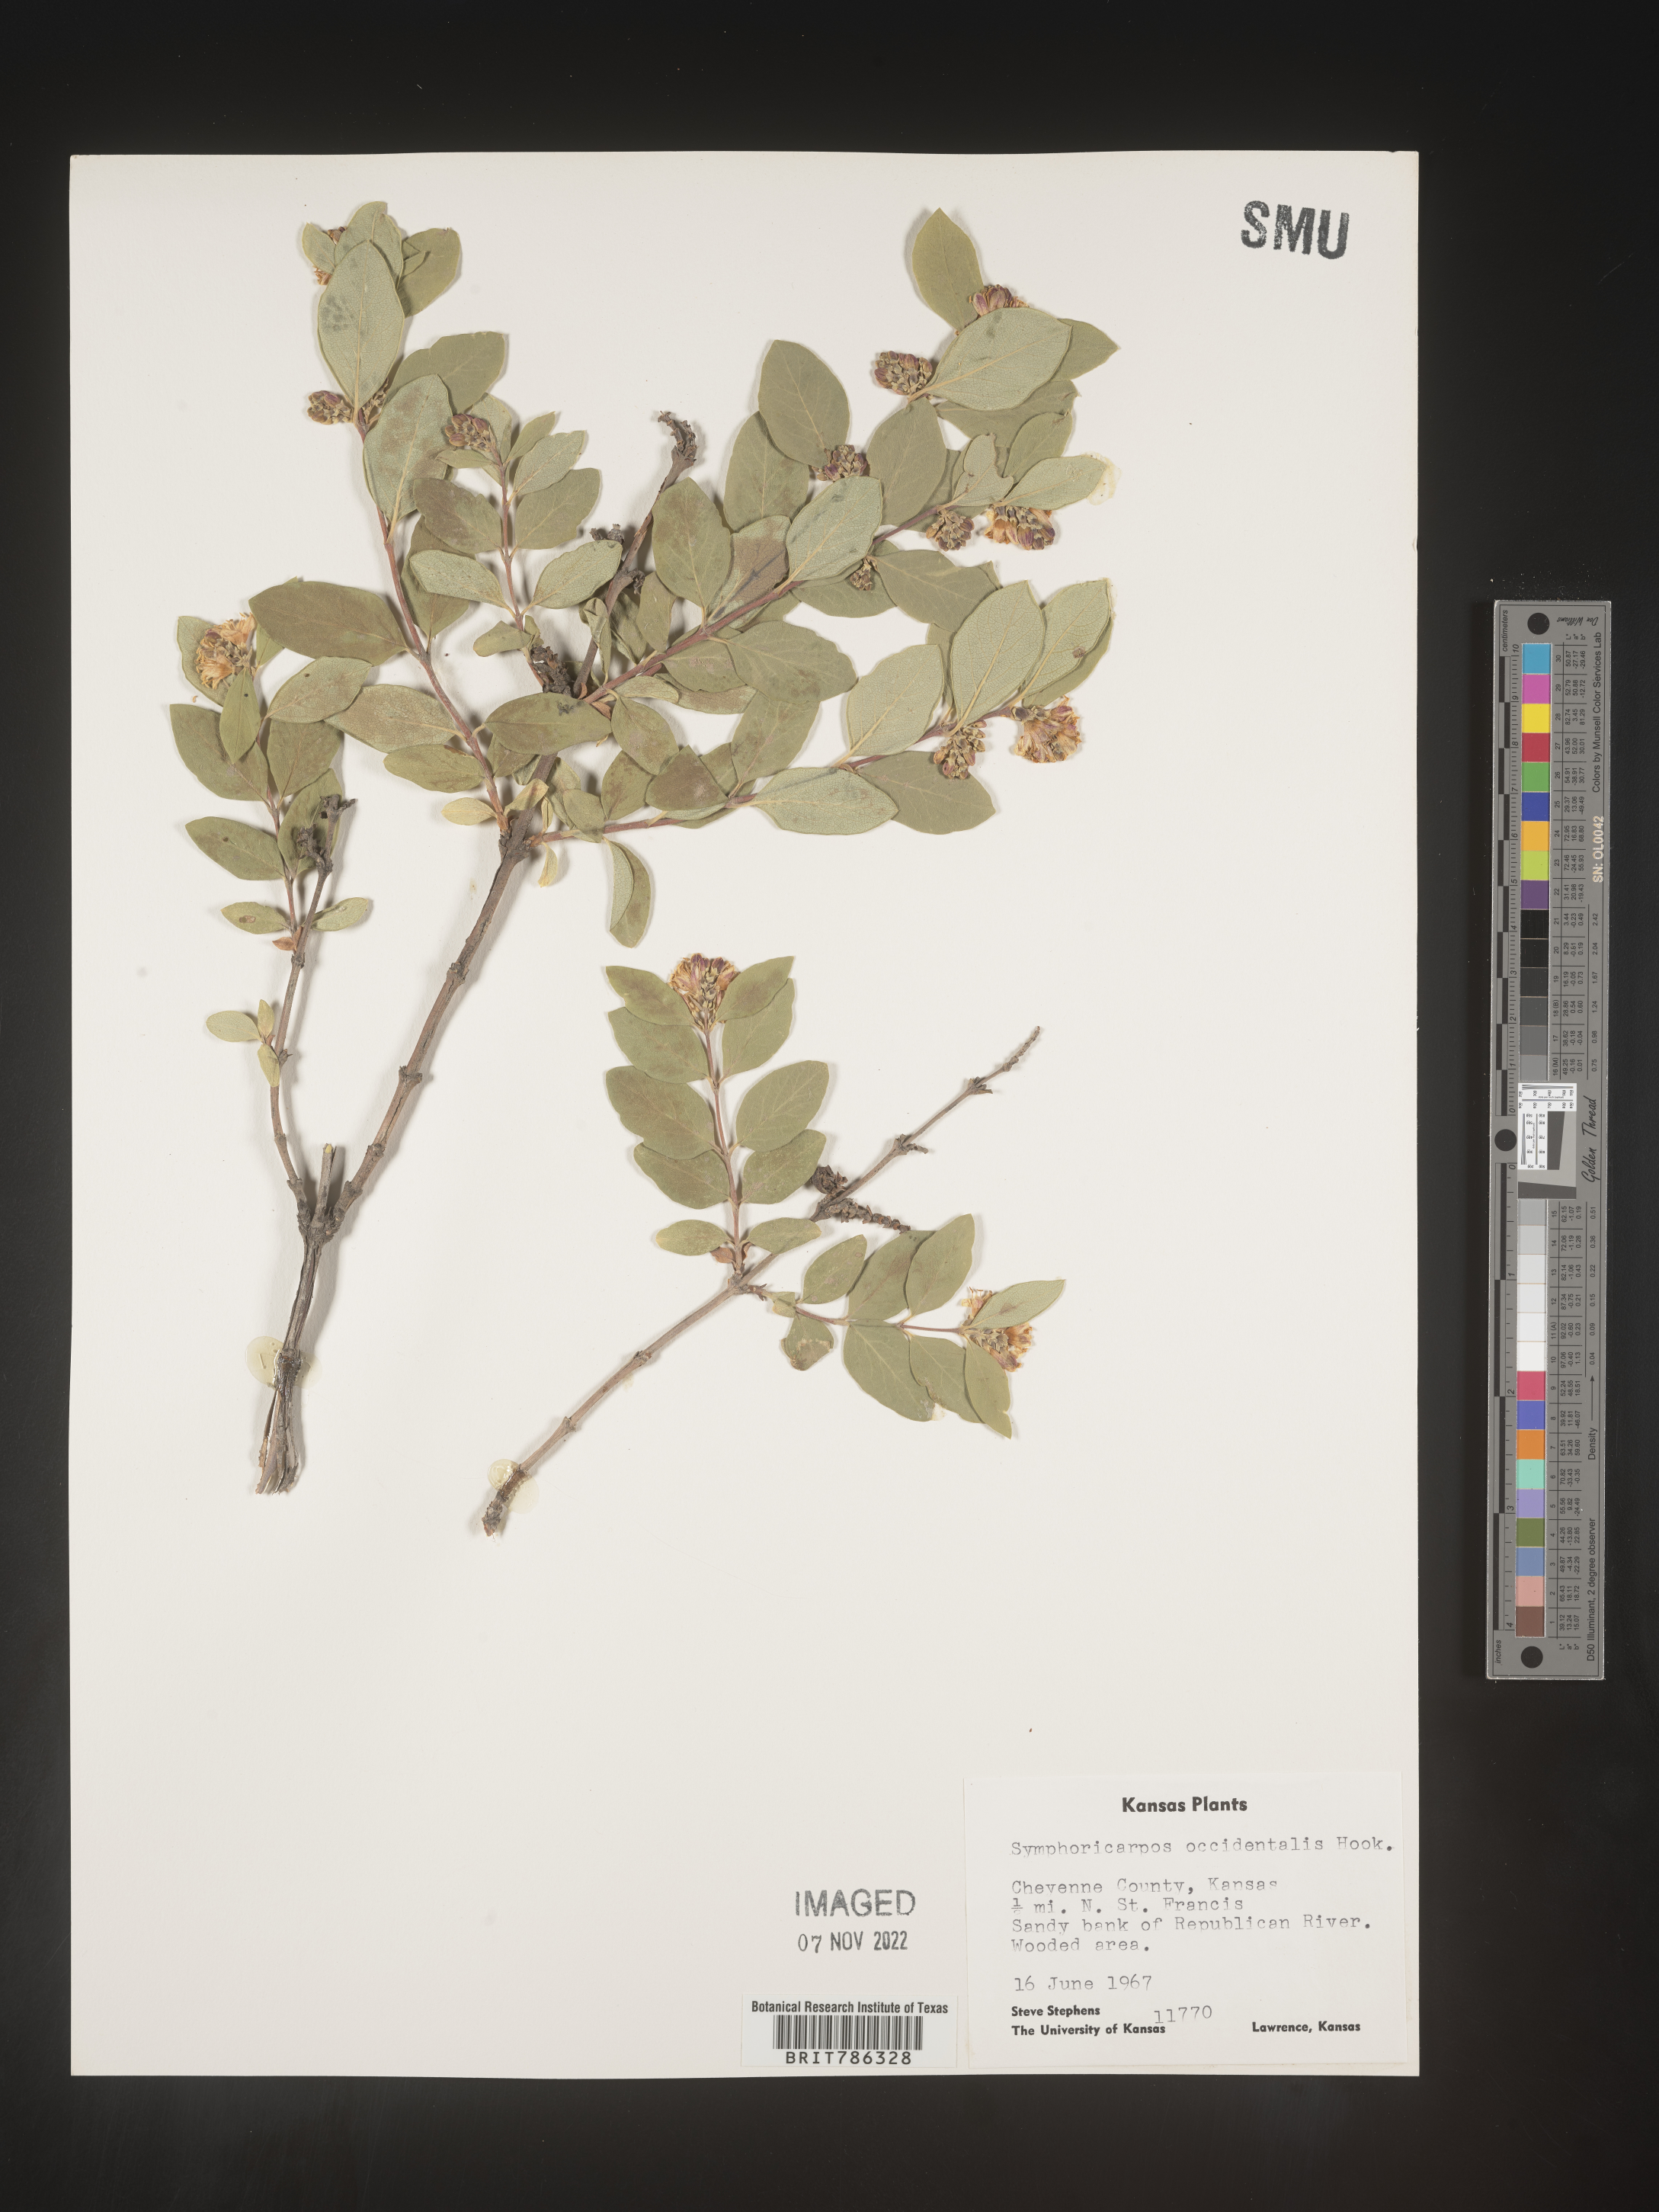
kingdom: Plantae
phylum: Tracheophyta
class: Magnoliopsida
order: Dipsacales
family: Caprifoliaceae
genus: Symphoricarpos
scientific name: Symphoricarpos occidentalis
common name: Wolfberry
